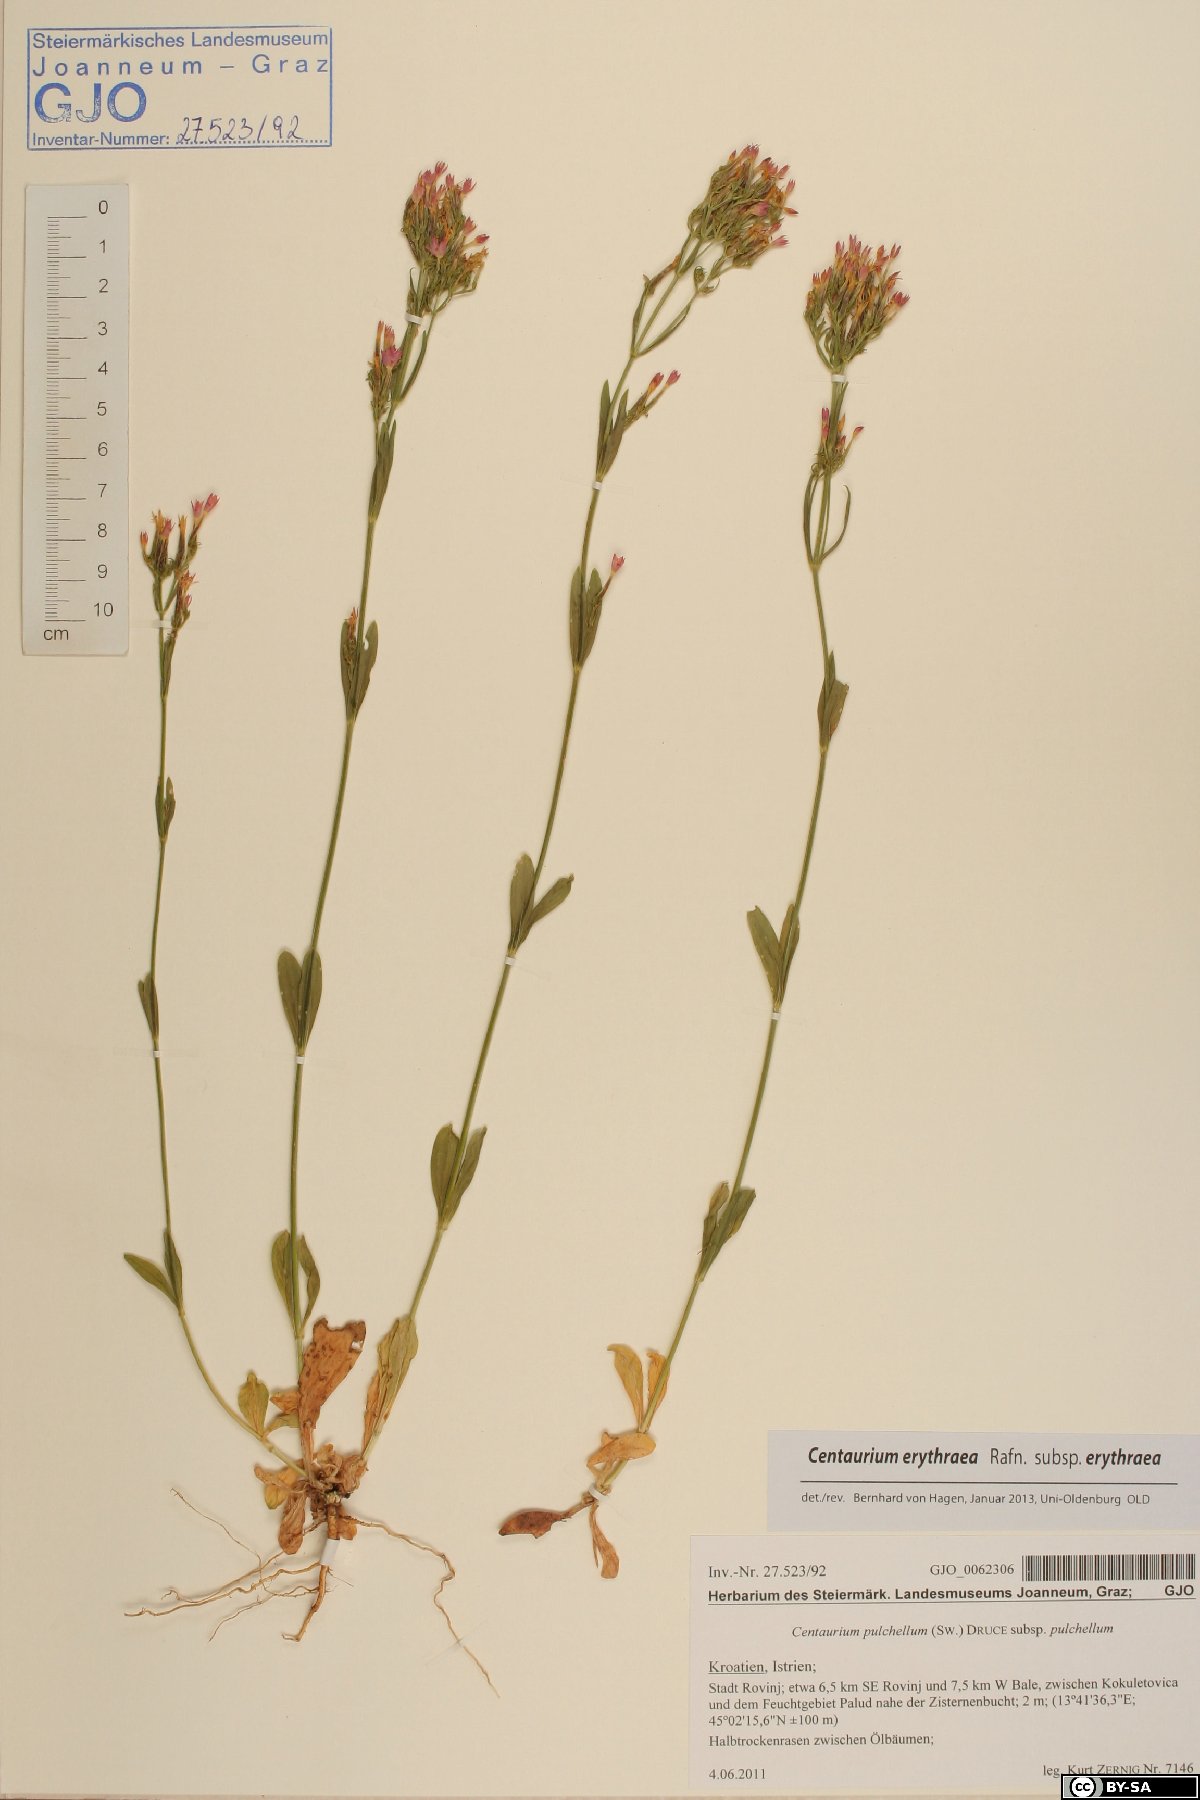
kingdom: Plantae
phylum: Tracheophyta
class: Magnoliopsida
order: Gentianales
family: Gentianaceae
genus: Centaurium
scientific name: Centaurium erythraea
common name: Common centaury
